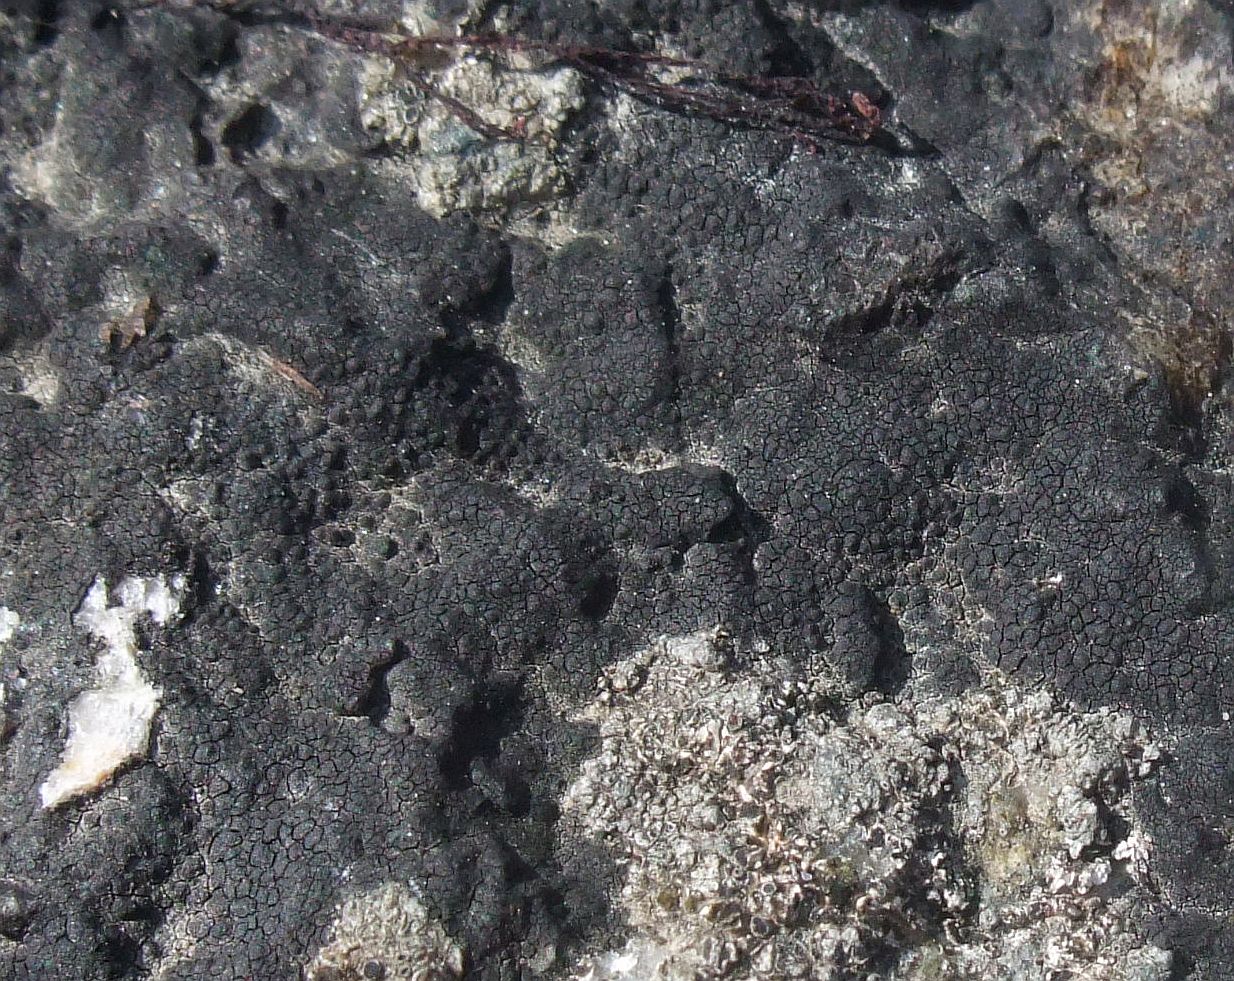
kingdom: Fungi
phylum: Ascomycota
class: Eurotiomycetes
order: Verrucariales
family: Verrucariaceae
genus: Hydropunctaria
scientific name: Hydropunctaria maura
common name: strand-vortelav
